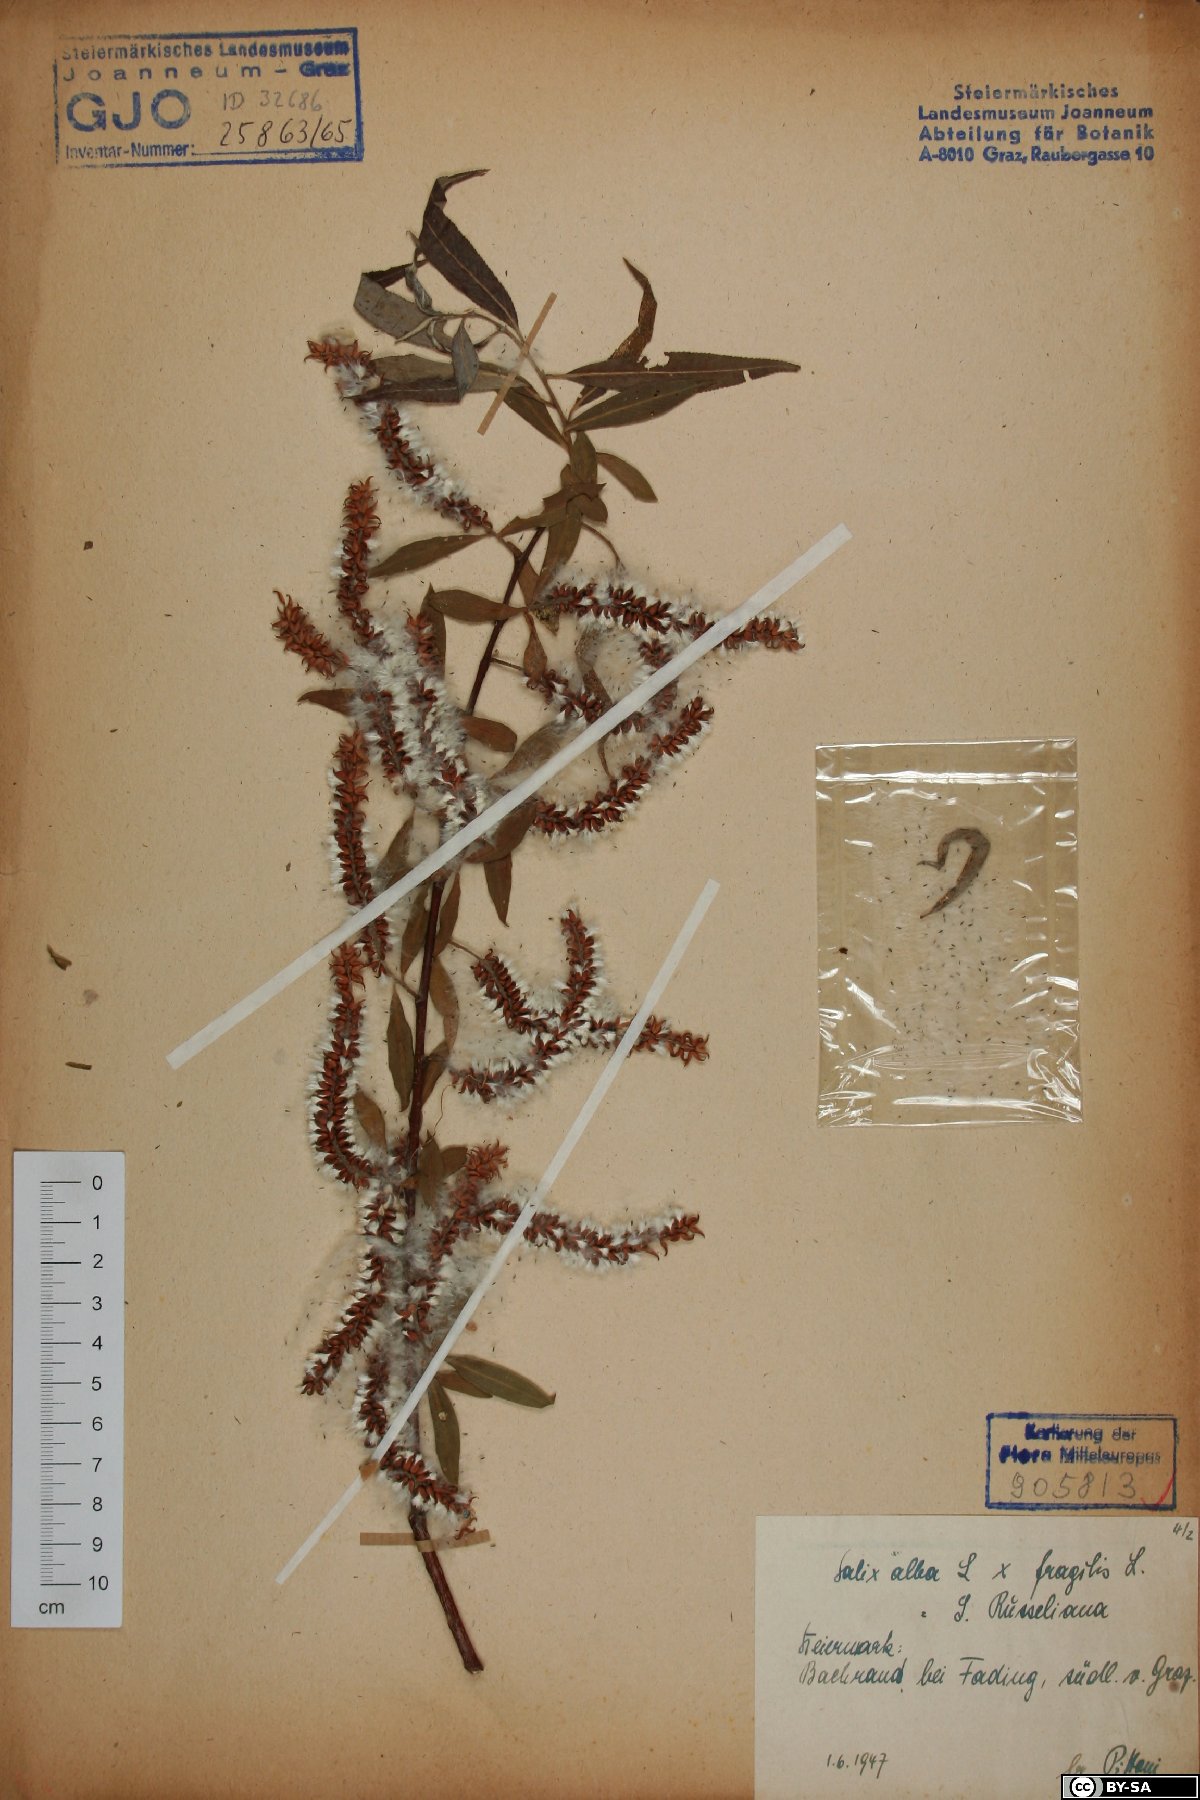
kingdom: Plantae
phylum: Tracheophyta
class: Magnoliopsida
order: Malpighiales
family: Salicaceae
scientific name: Salicaceae
